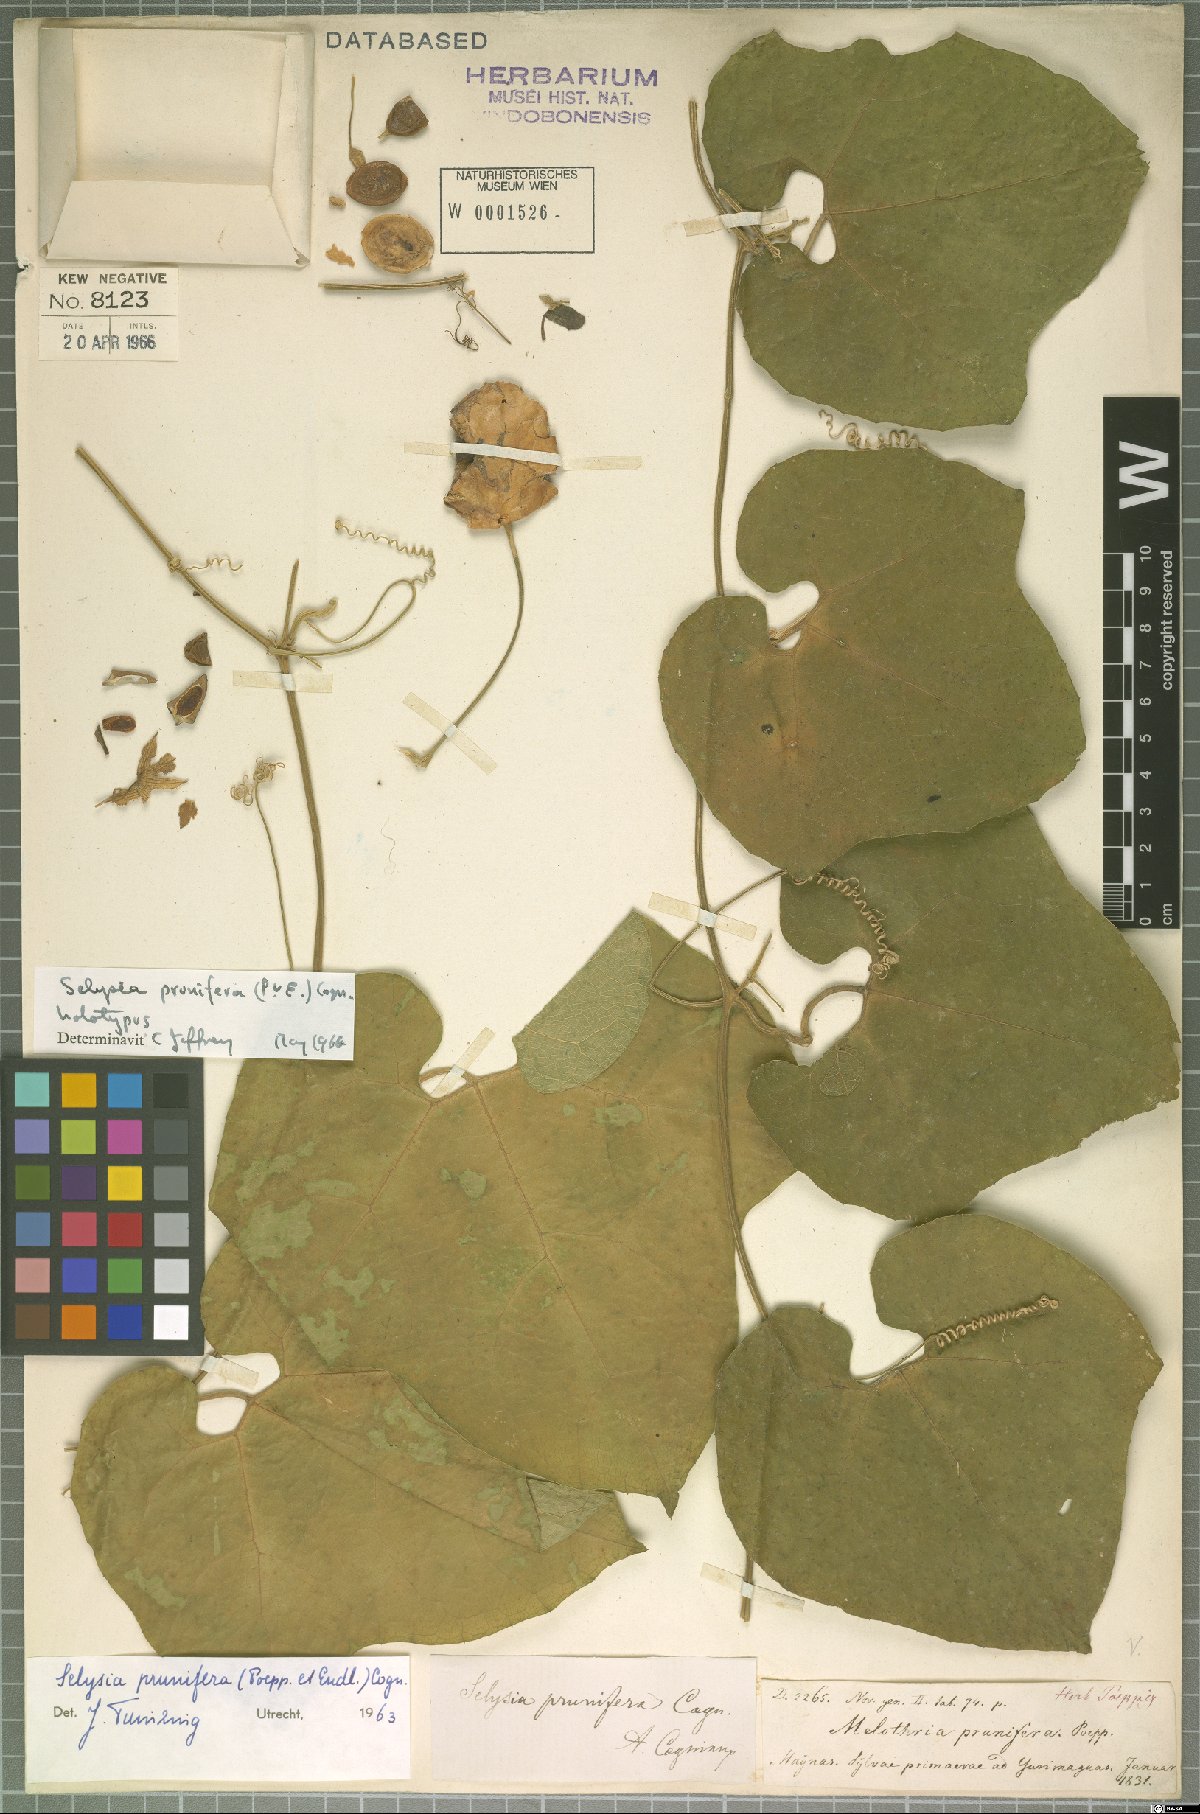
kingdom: Plantae
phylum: Tracheophyta
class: Magnoliopsida
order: Cucurbitales
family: Cucurbitaceae
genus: Cayaponia
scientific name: Cayaponia prunifera
